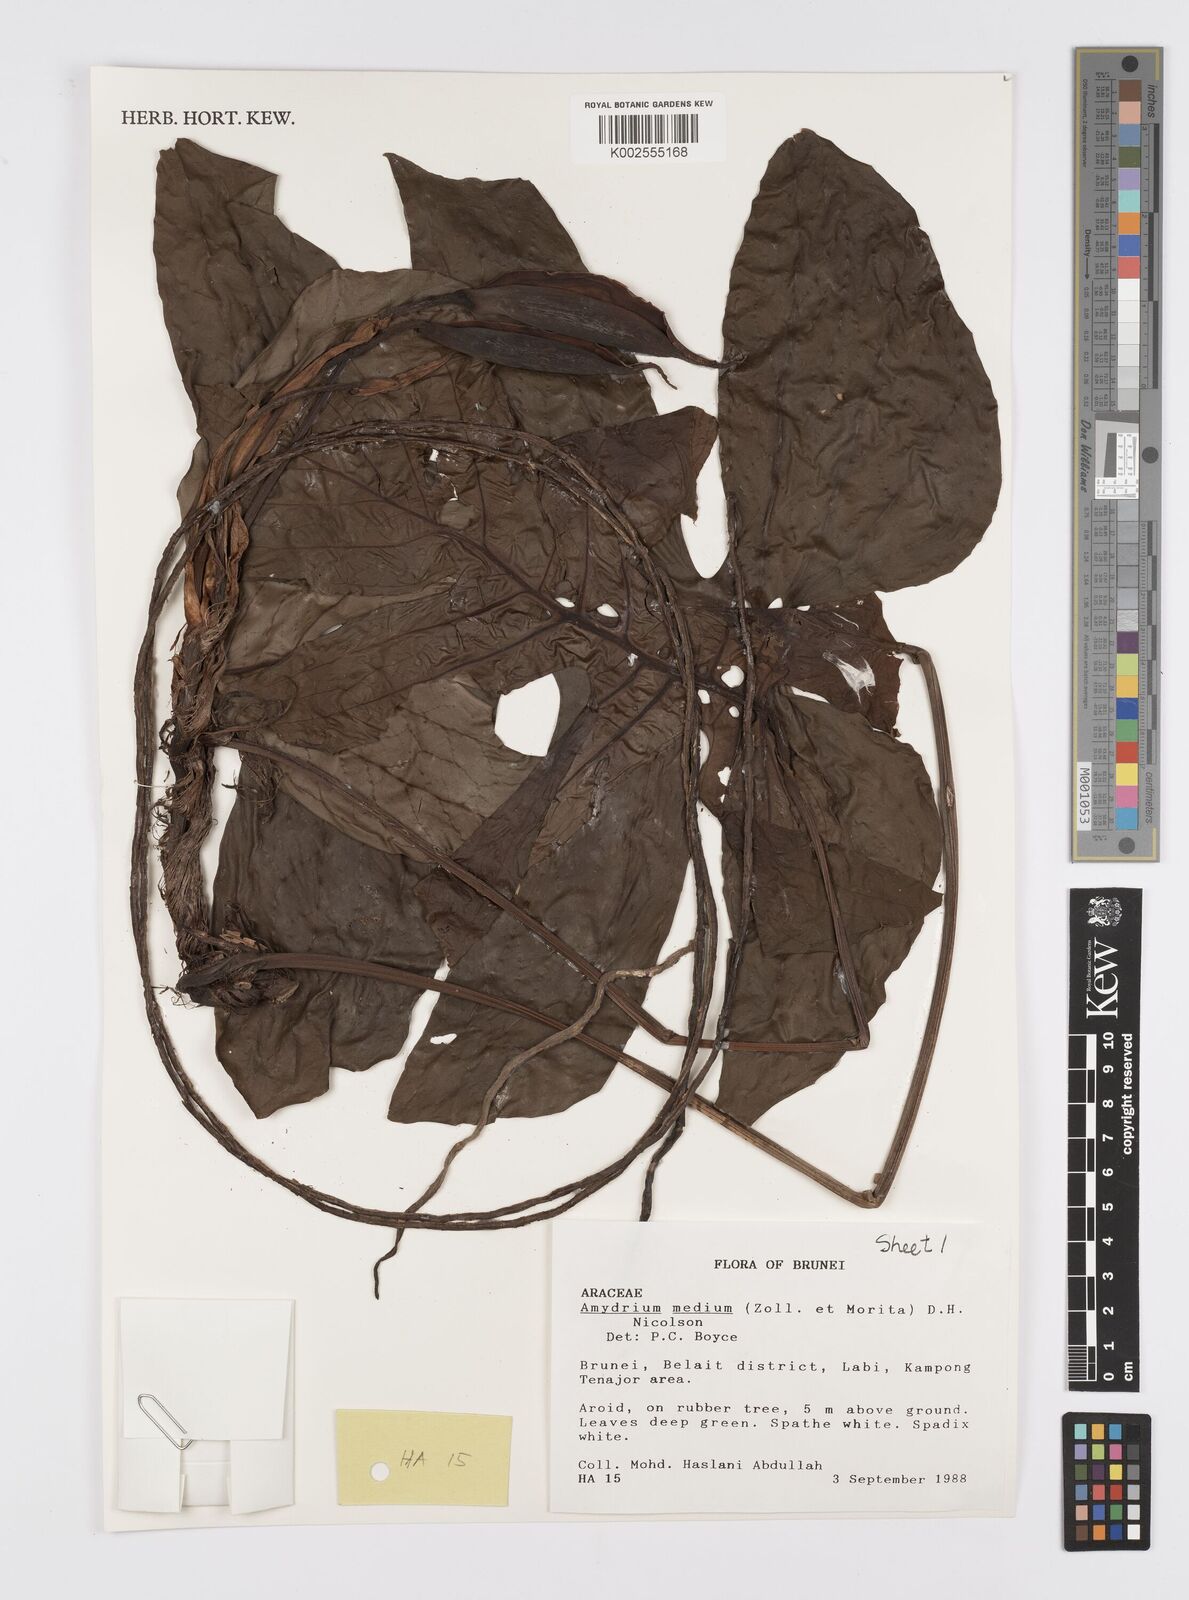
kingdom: Plantae
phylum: Tracheophyta
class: Liliopsida
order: Alismatales
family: Araceae
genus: Amydrium
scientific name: Amydrium medium
